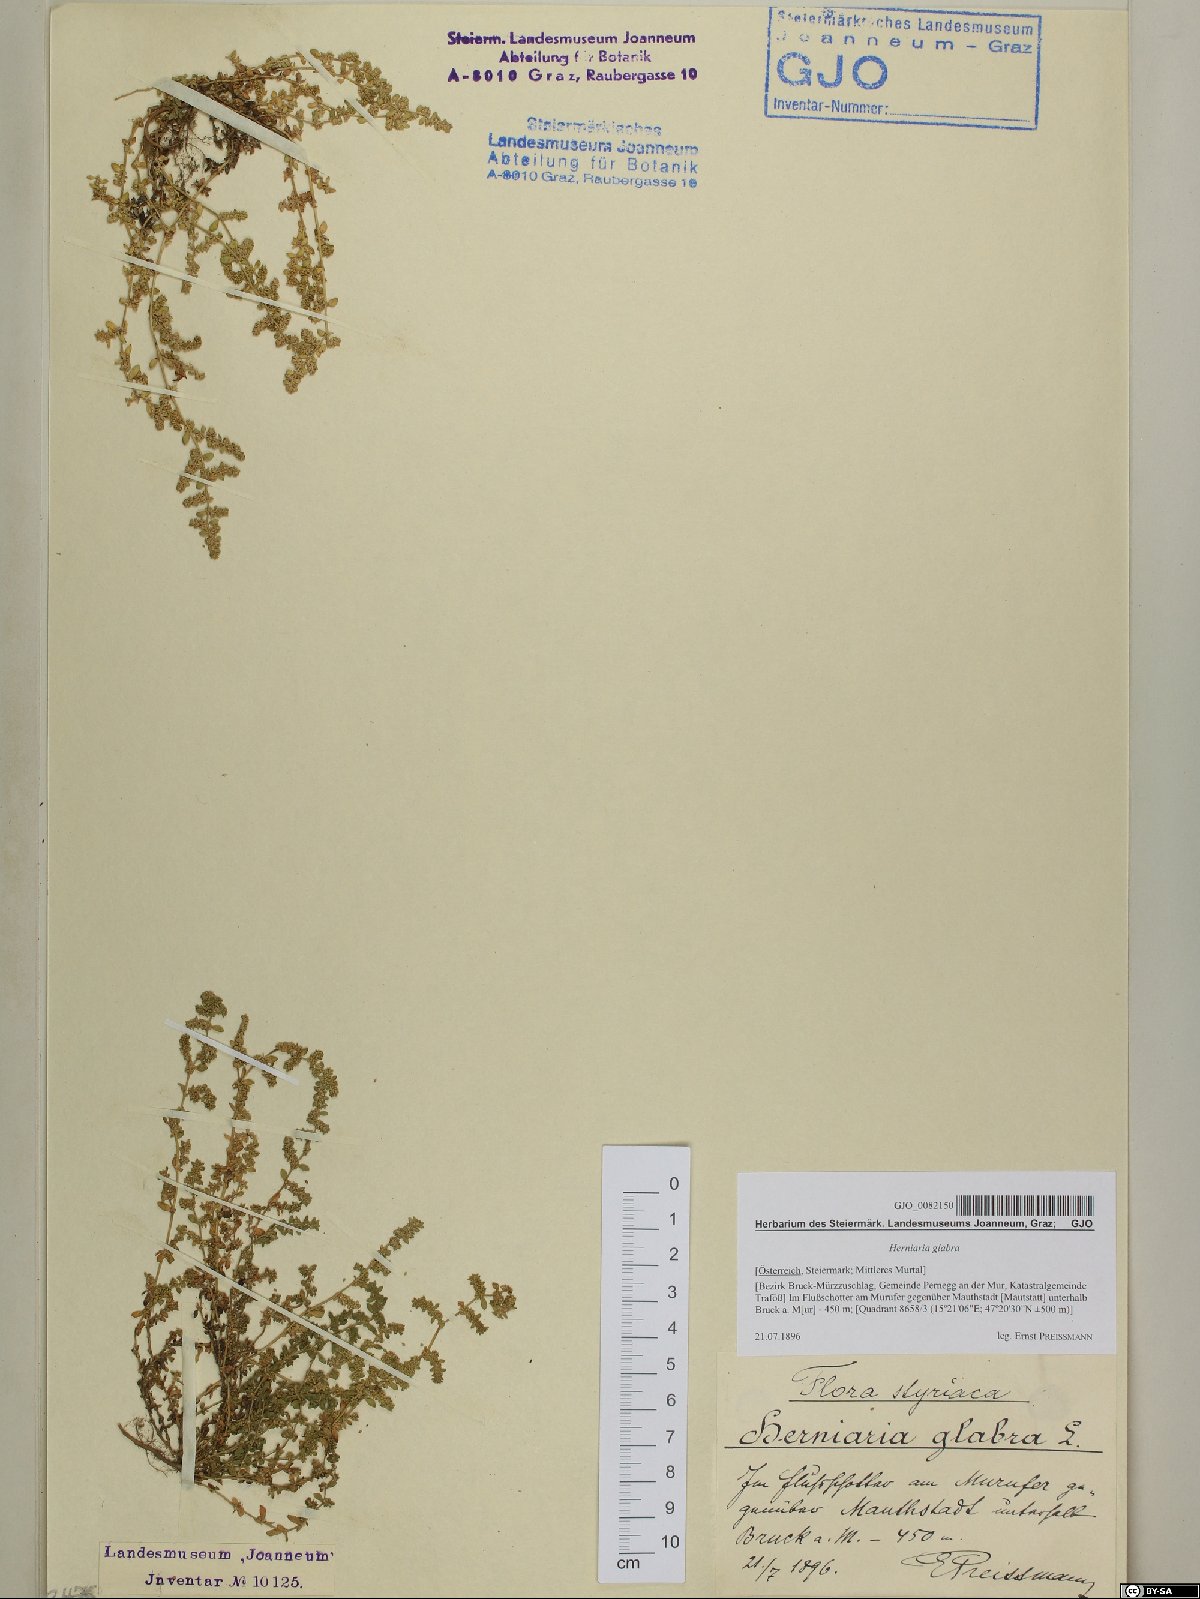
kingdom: Plantae
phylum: Tracheophyta
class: Magnoliopsida
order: Caryophyllales
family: Caryophyllaceae
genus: Herniaria
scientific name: Herniaria glabra
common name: Smooth rupturewort
